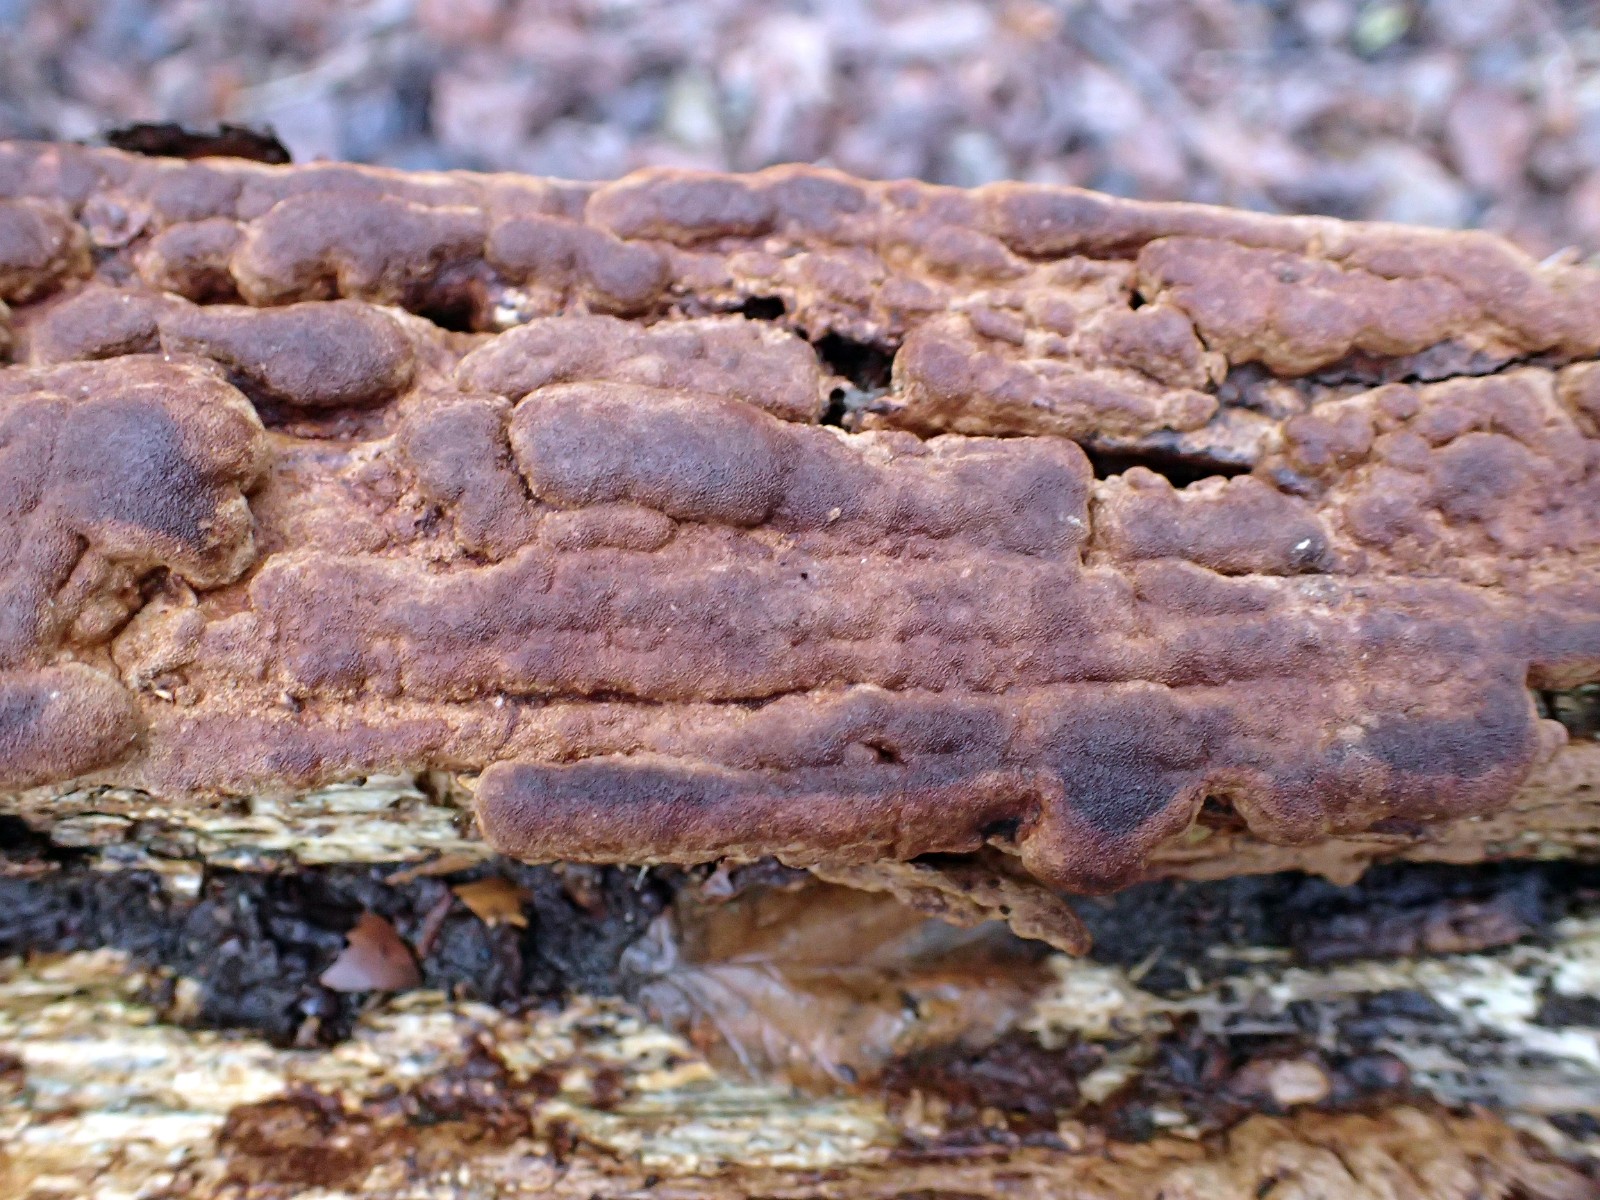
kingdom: Fungi
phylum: Basidiomycota
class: Agaricomycetes
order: Hymenochaetales
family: Hymenochaetaceae
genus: Fuscoporia
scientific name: Fuscoporia ferrea
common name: skorpe-ildporesvamp
